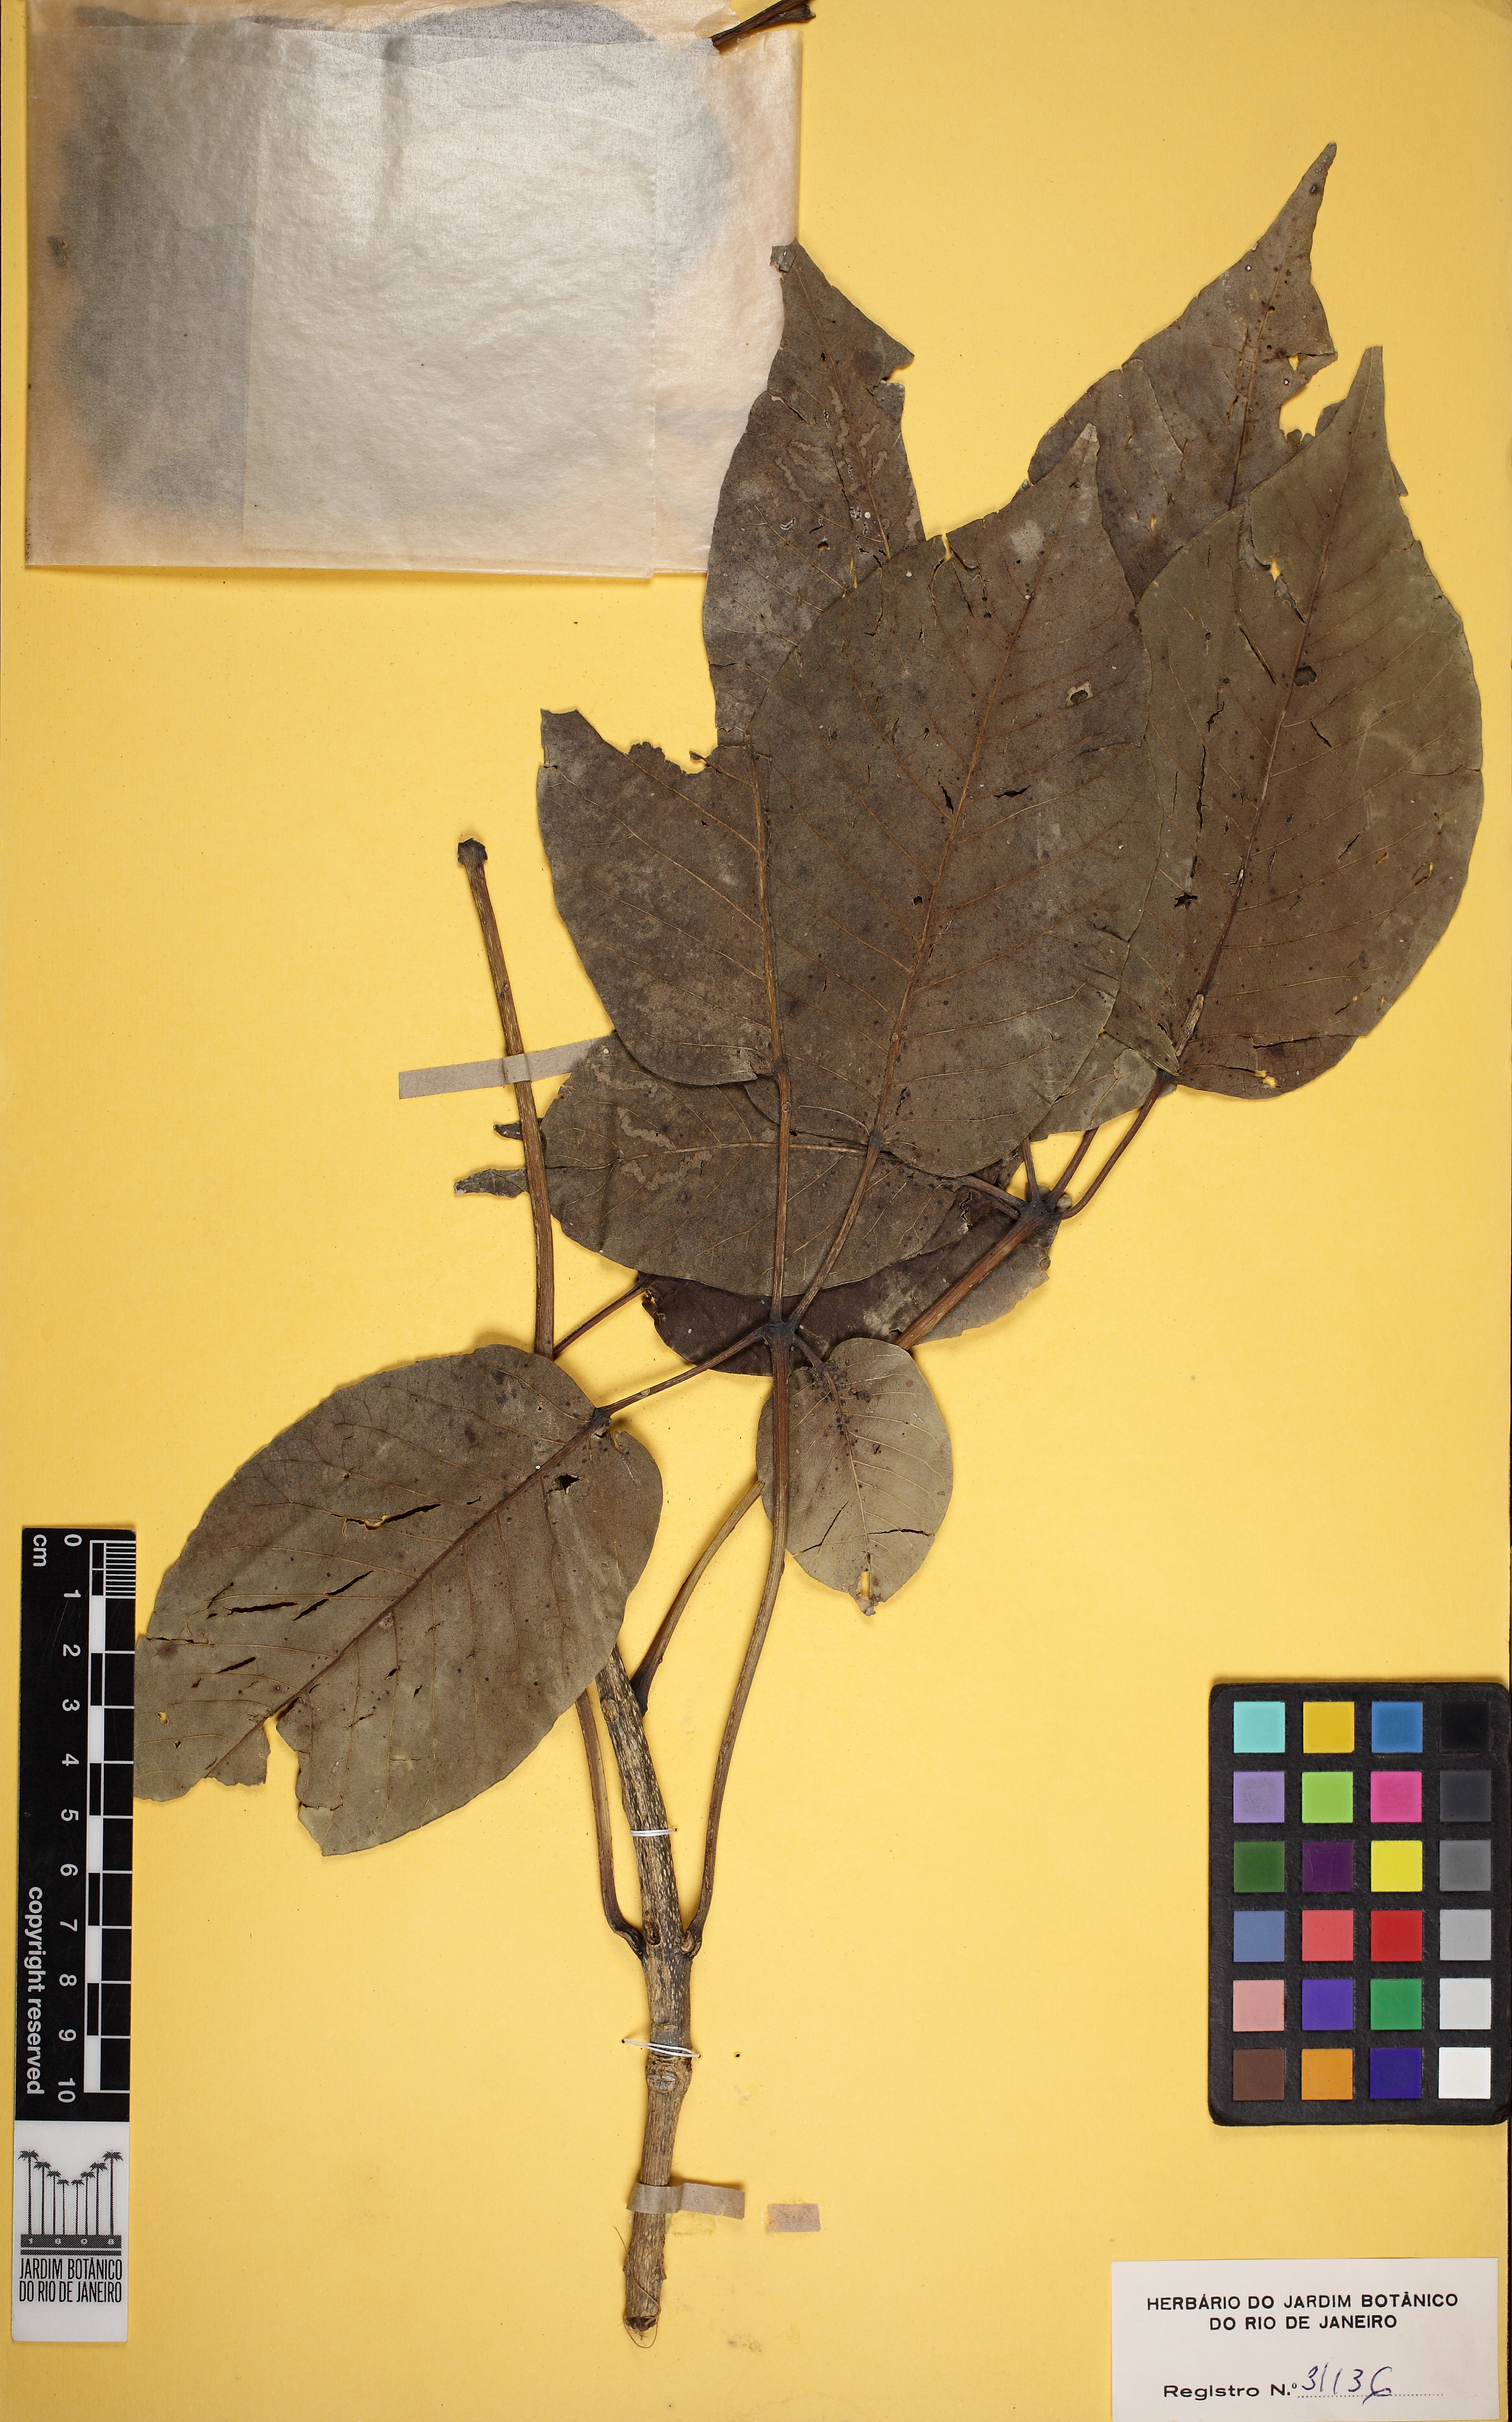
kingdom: Plantae
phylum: Tracheophyta
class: Magnoliopsida
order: Lamiales
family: Bignoniaceae
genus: Handroanthus
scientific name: Handroanthus impetiginosum
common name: Pink trumpet tree
